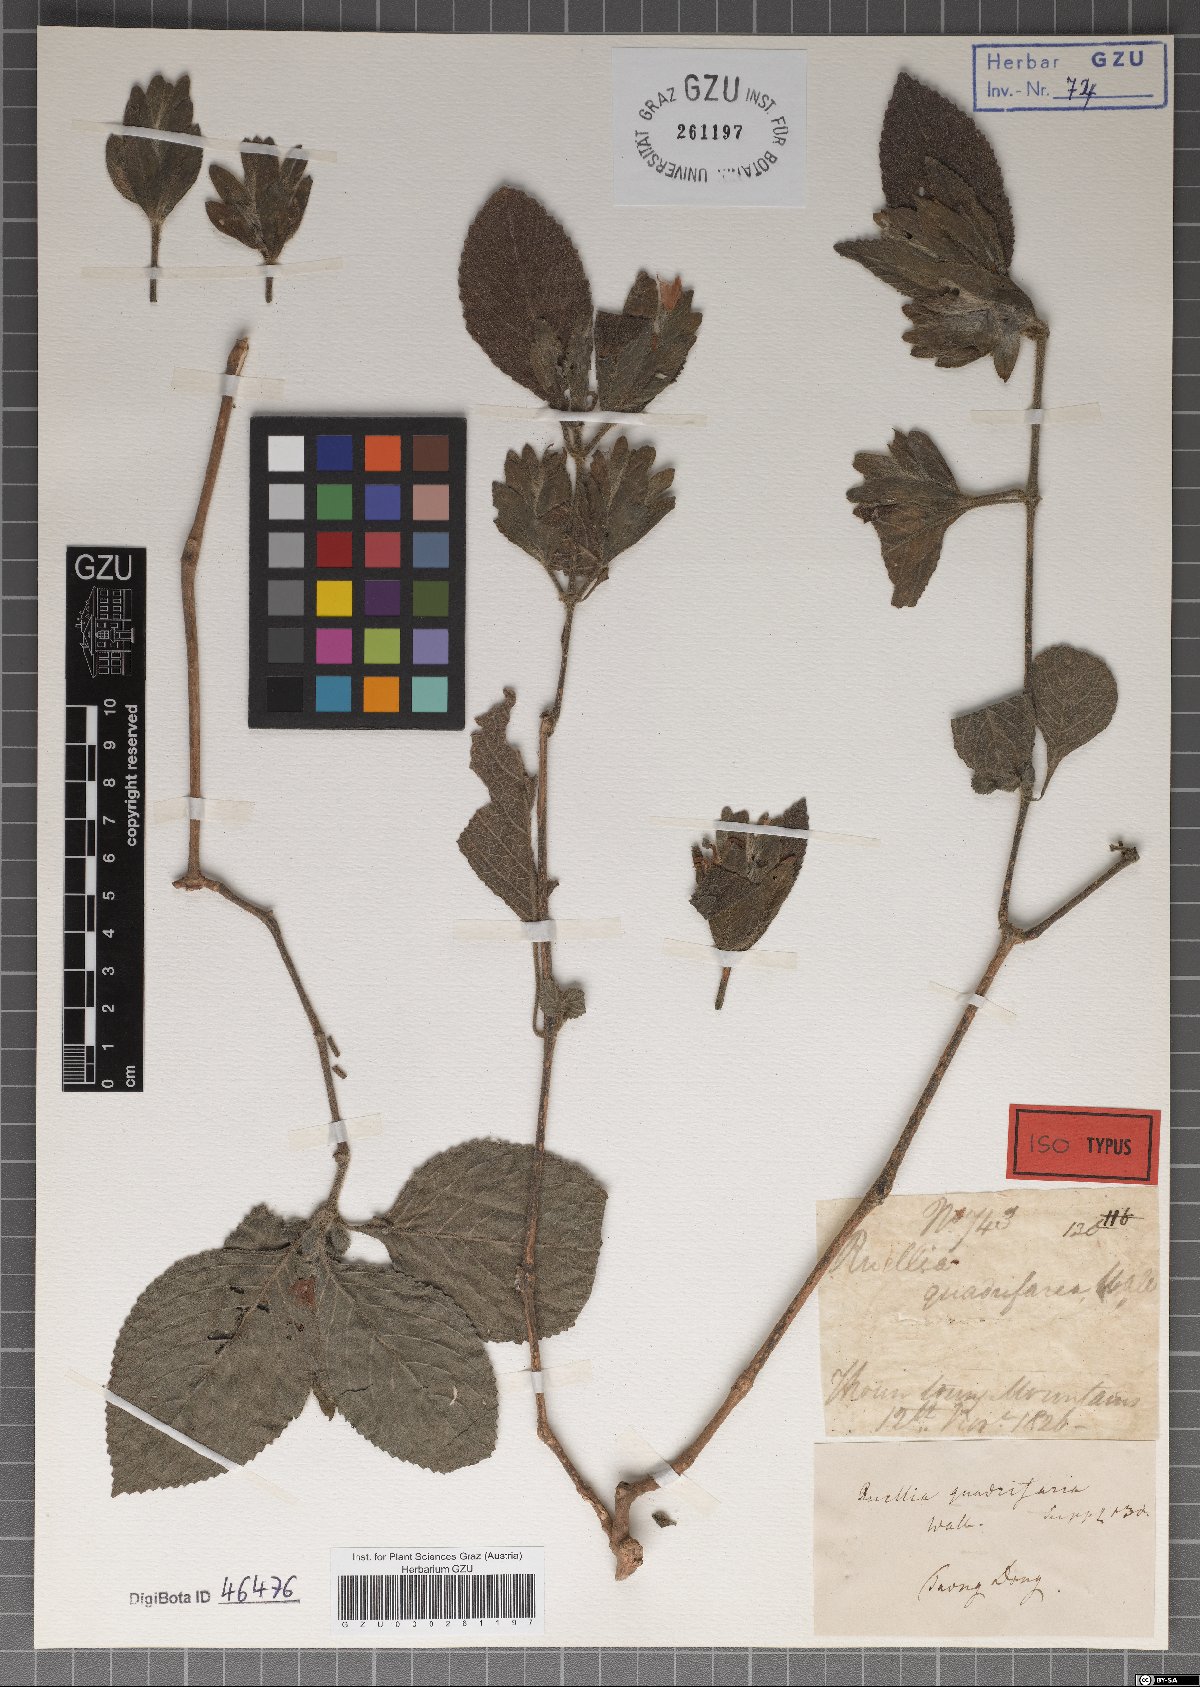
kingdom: Plantae
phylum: Tracheophyta
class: Magnoliopsida
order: Lamiales
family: Acanthaceae
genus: Strobilanthes
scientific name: Strobilanthes quadrifaria
